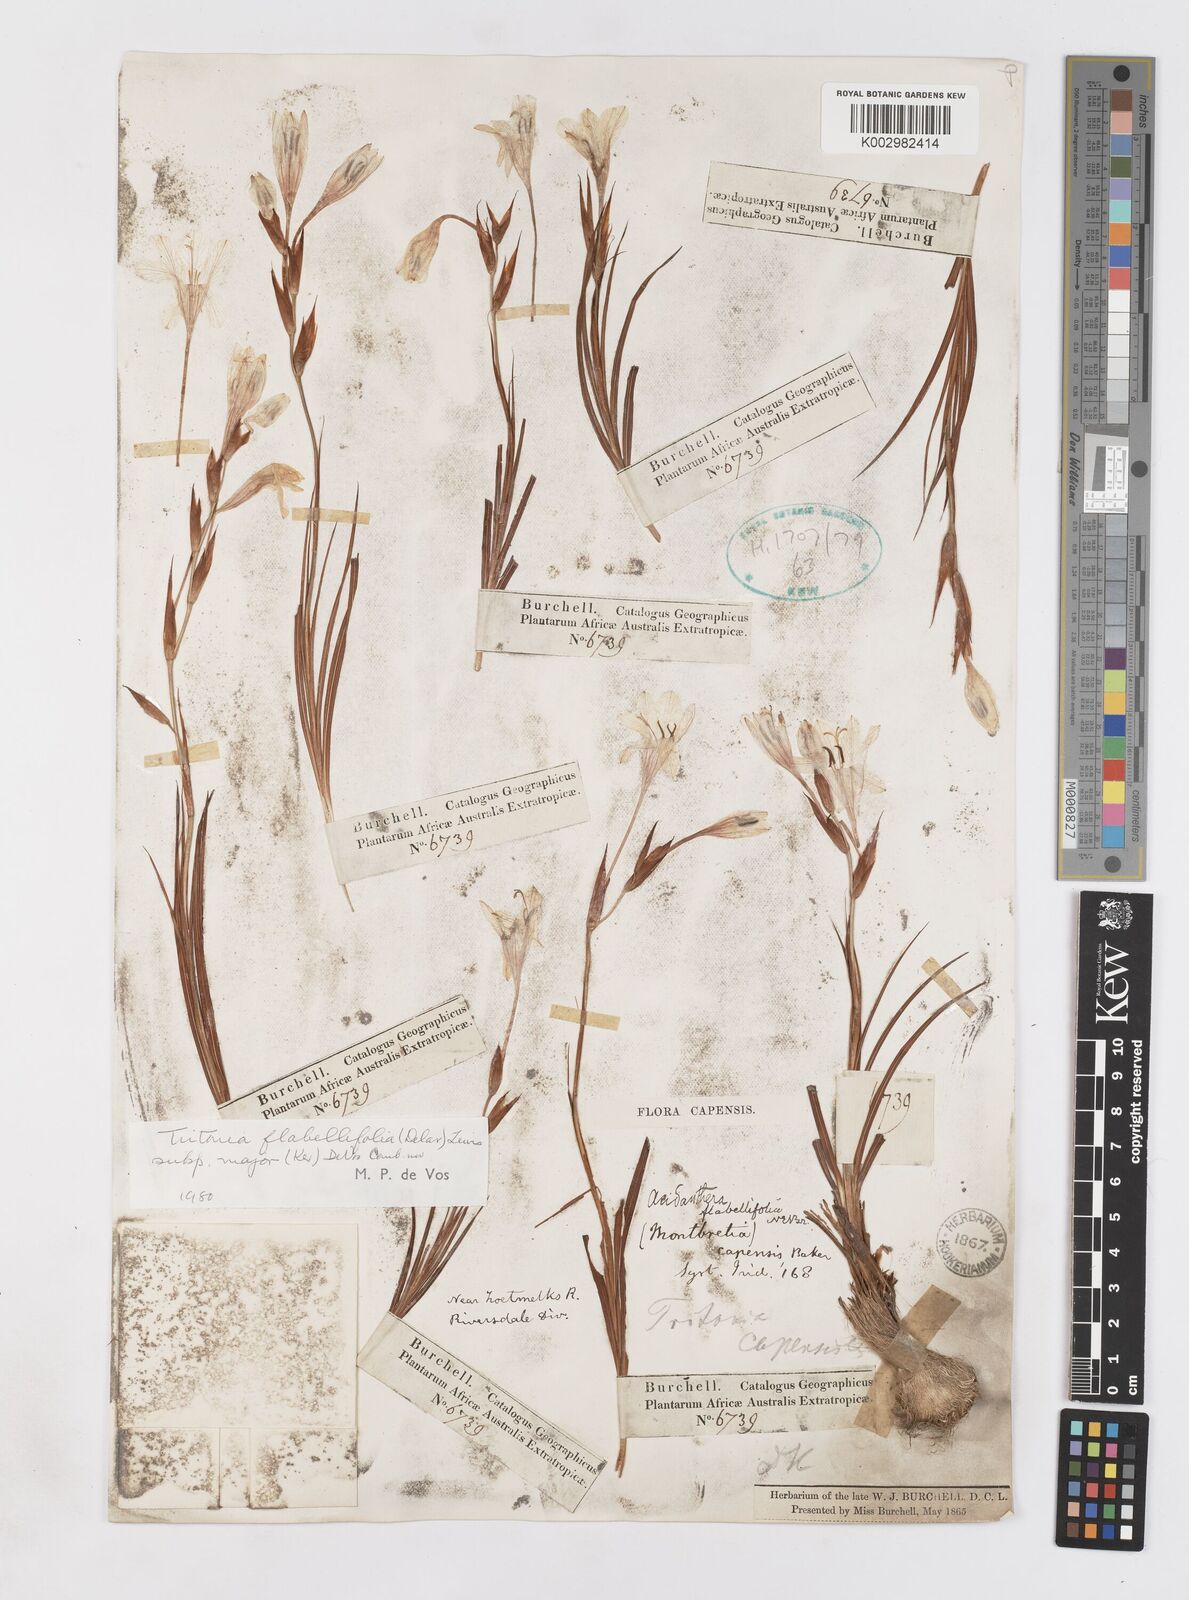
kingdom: Plantae
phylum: Tracheophyta
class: Liliopsida
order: Asparagales
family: Iridaceae
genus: Tritonia
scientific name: Tritonia
